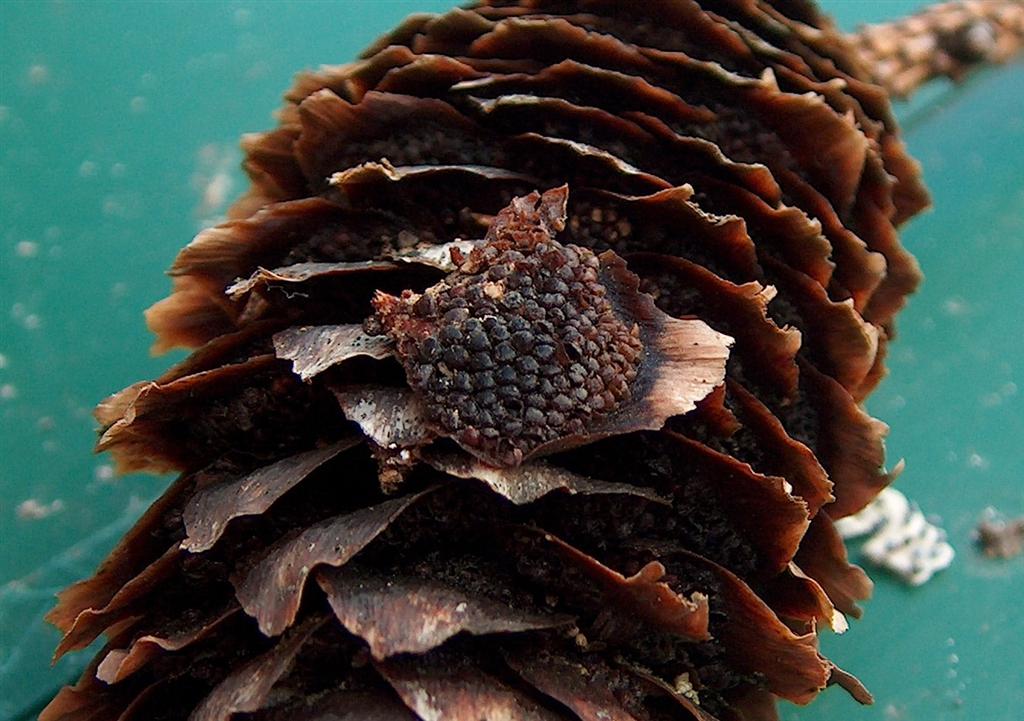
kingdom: Fungi
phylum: Basidiomycota
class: Pucciniomycetes
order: Pucciniales
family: Pucciniastraceae
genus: Thekopsora
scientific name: Thekopsora areolata
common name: grankogle-nålerust
